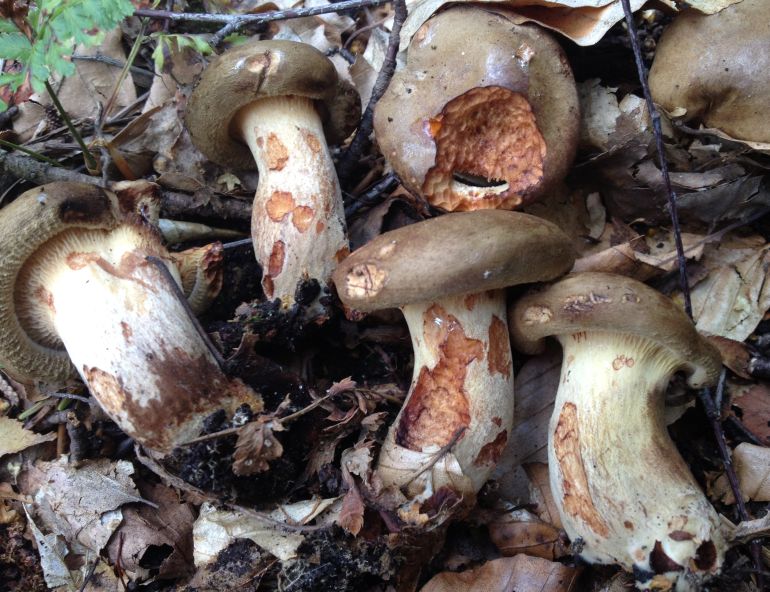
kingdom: Fungi
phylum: Basidiomycota
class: Agaricomycetes
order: Boletales
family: Paxillaceae
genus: Paxillus
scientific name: Paxillus involutus
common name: almindelig netbladhat
